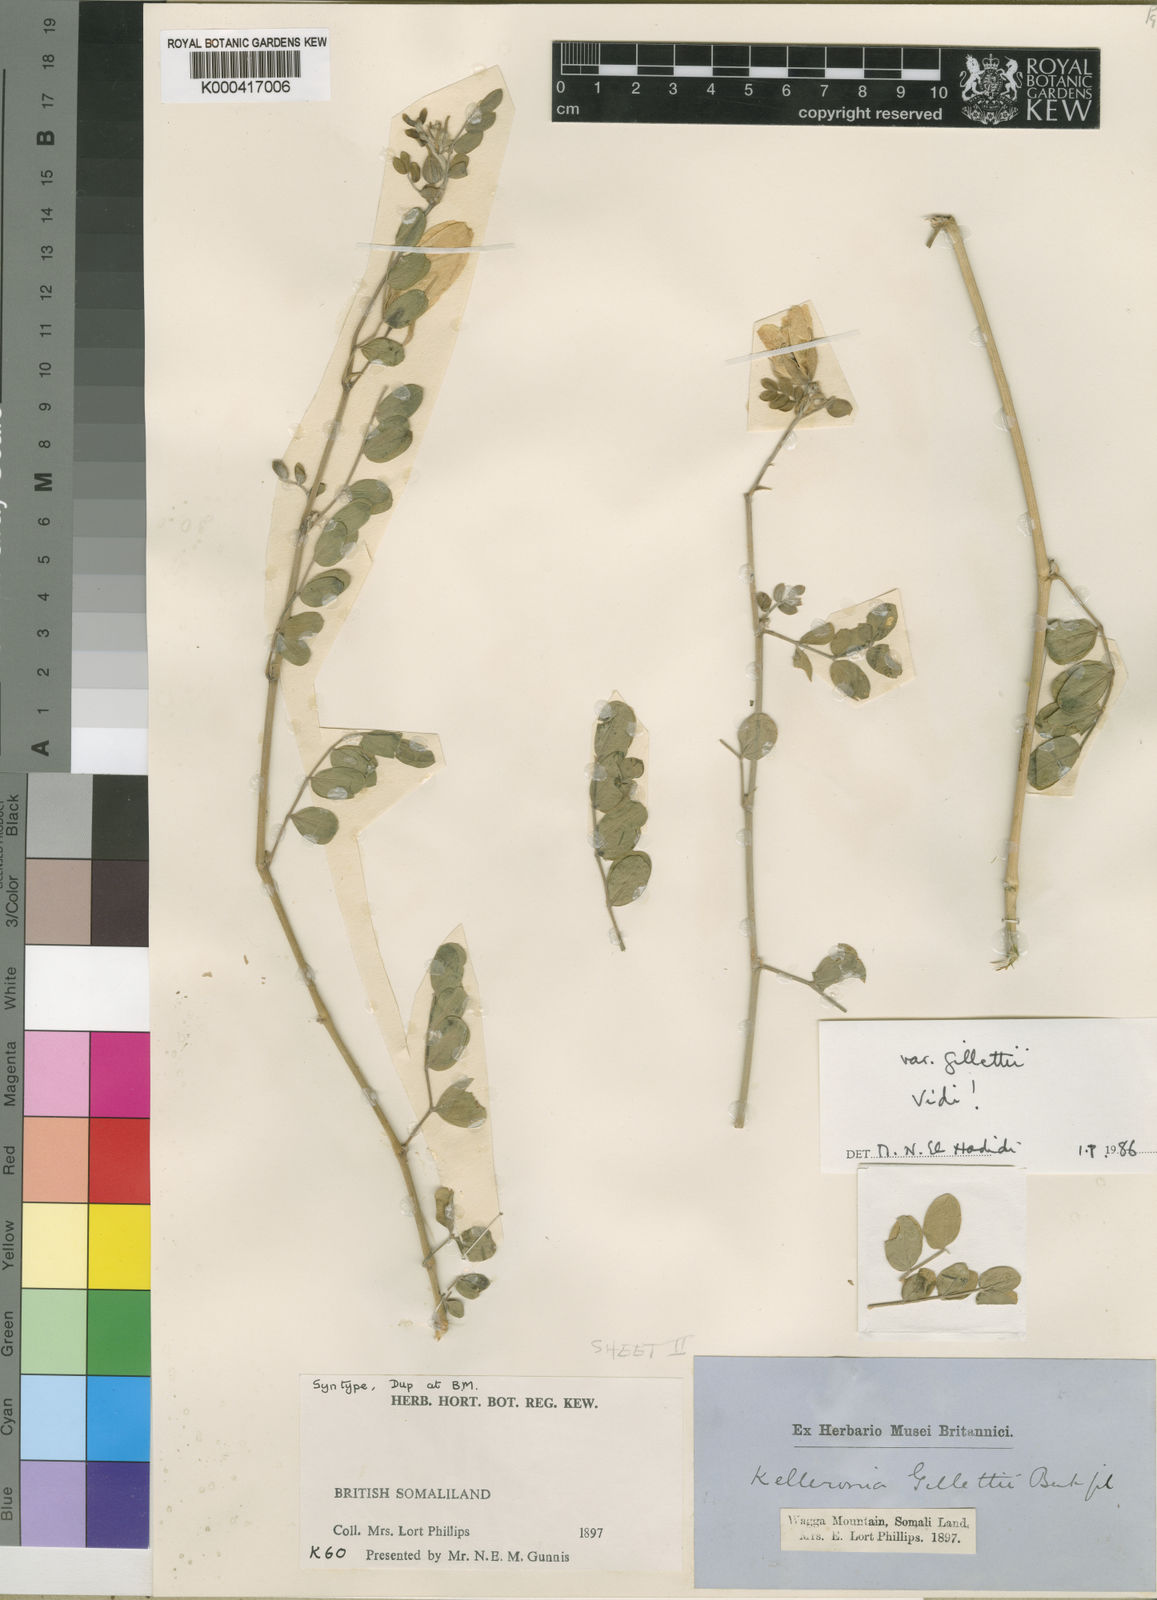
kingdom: Plantae
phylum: Tracheophyta
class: Magnoliopsida
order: Zygophyllales
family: Zygophyllaceae
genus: Kelleronia
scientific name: Kelleronia gillettiae
